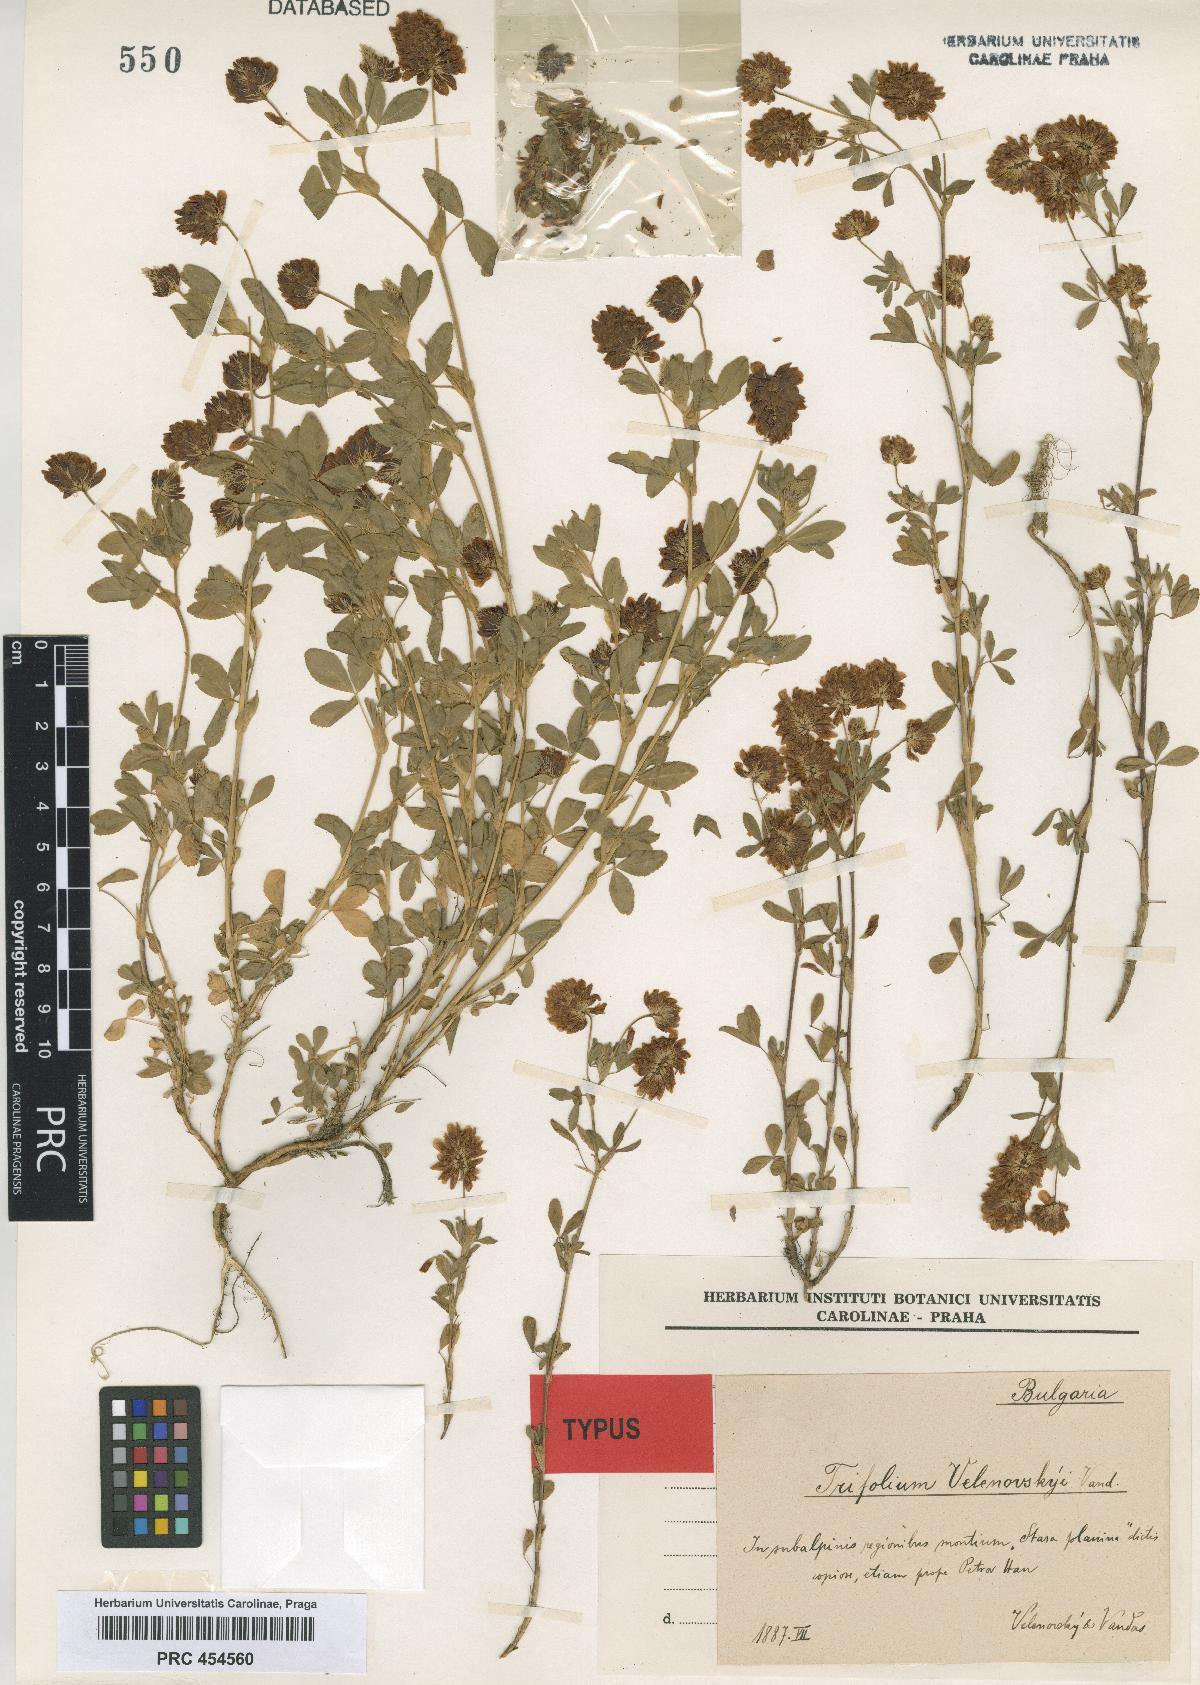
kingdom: Plantae
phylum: Tracheophyta
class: Magnoliopsida
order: Fabales
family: Fabaceae
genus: Trifolium
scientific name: Trifolium velenovskyi
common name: Velenovsky's clover
